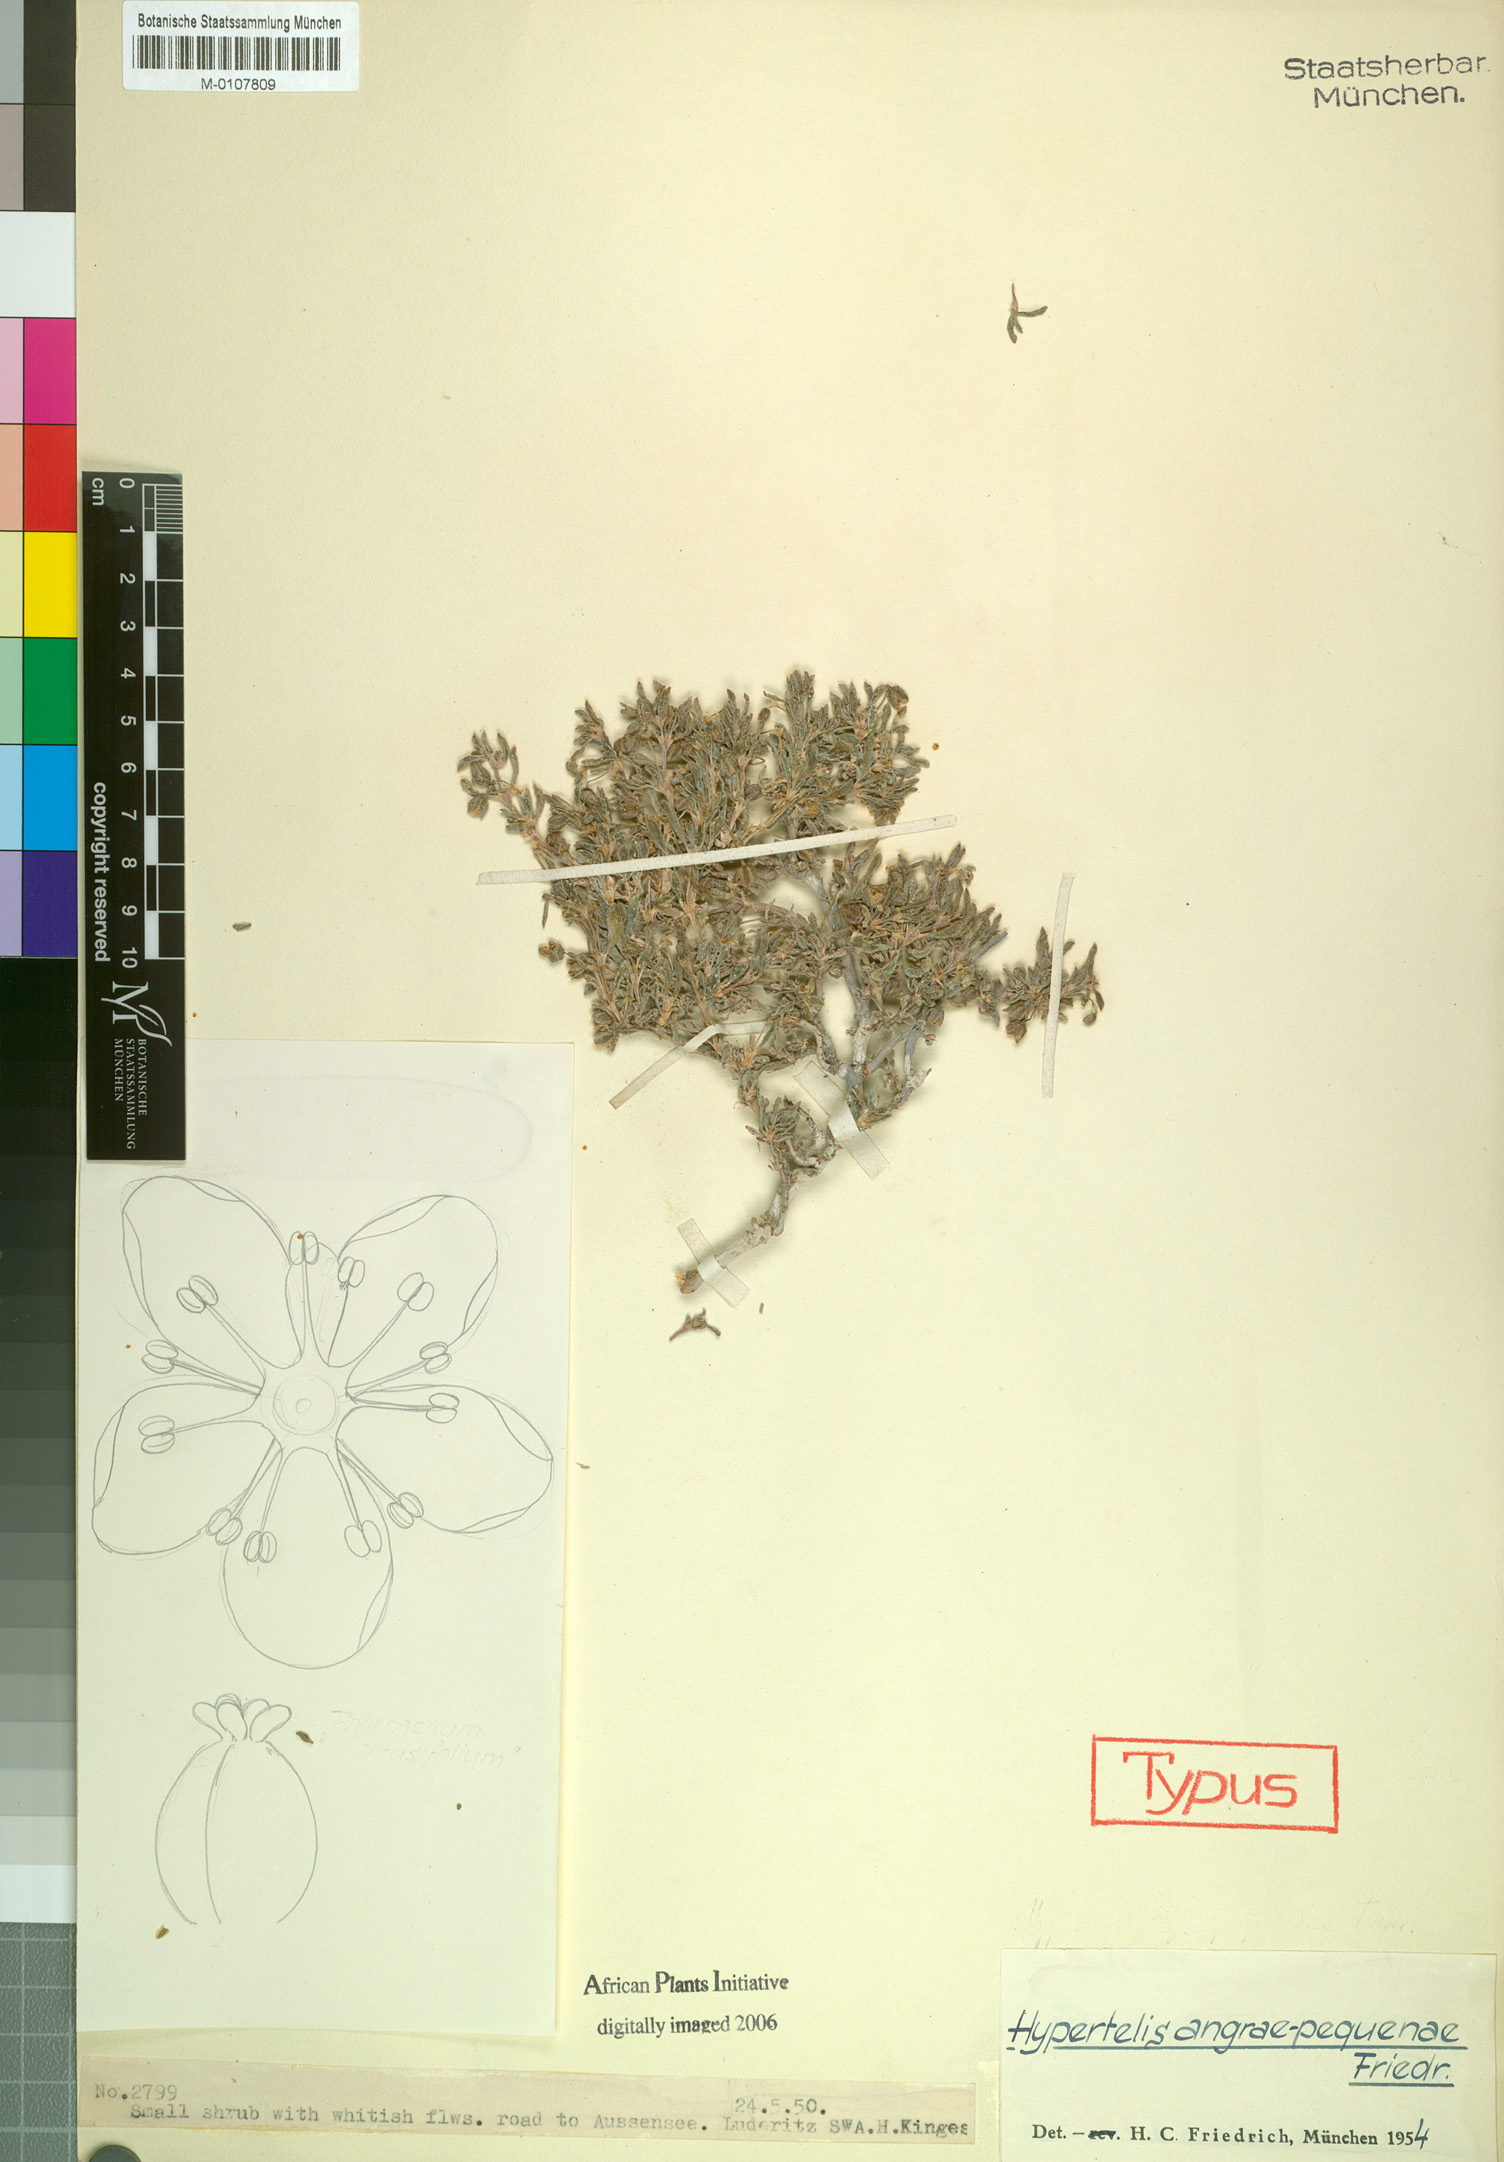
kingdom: Plantae
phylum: Tracheophyta
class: Magnoliopsida
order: Caryophyllales
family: Kewaceae
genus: Kewa
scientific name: Kewa angrae-pequenae
